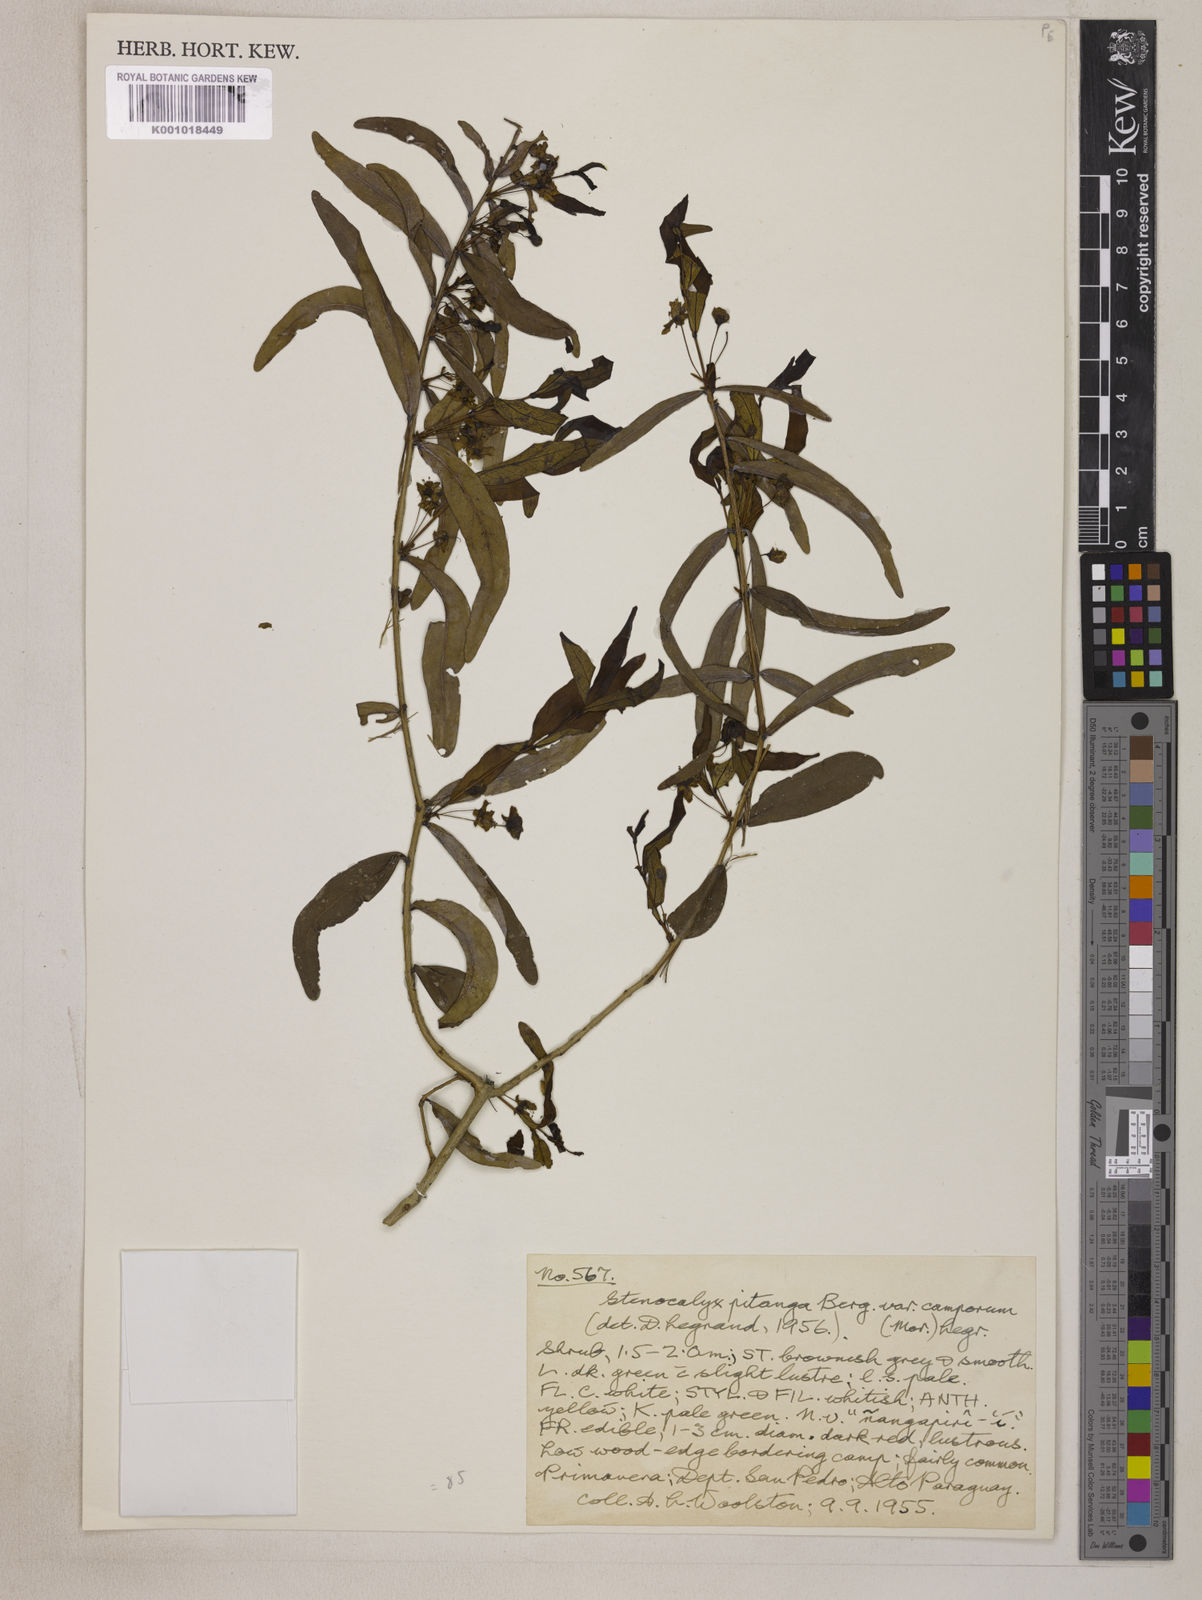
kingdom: Plantae
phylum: Tracheophyta
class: Magnoliopsida
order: Myrtales
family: Myrtaceae
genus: Eugenia
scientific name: Eugenia
